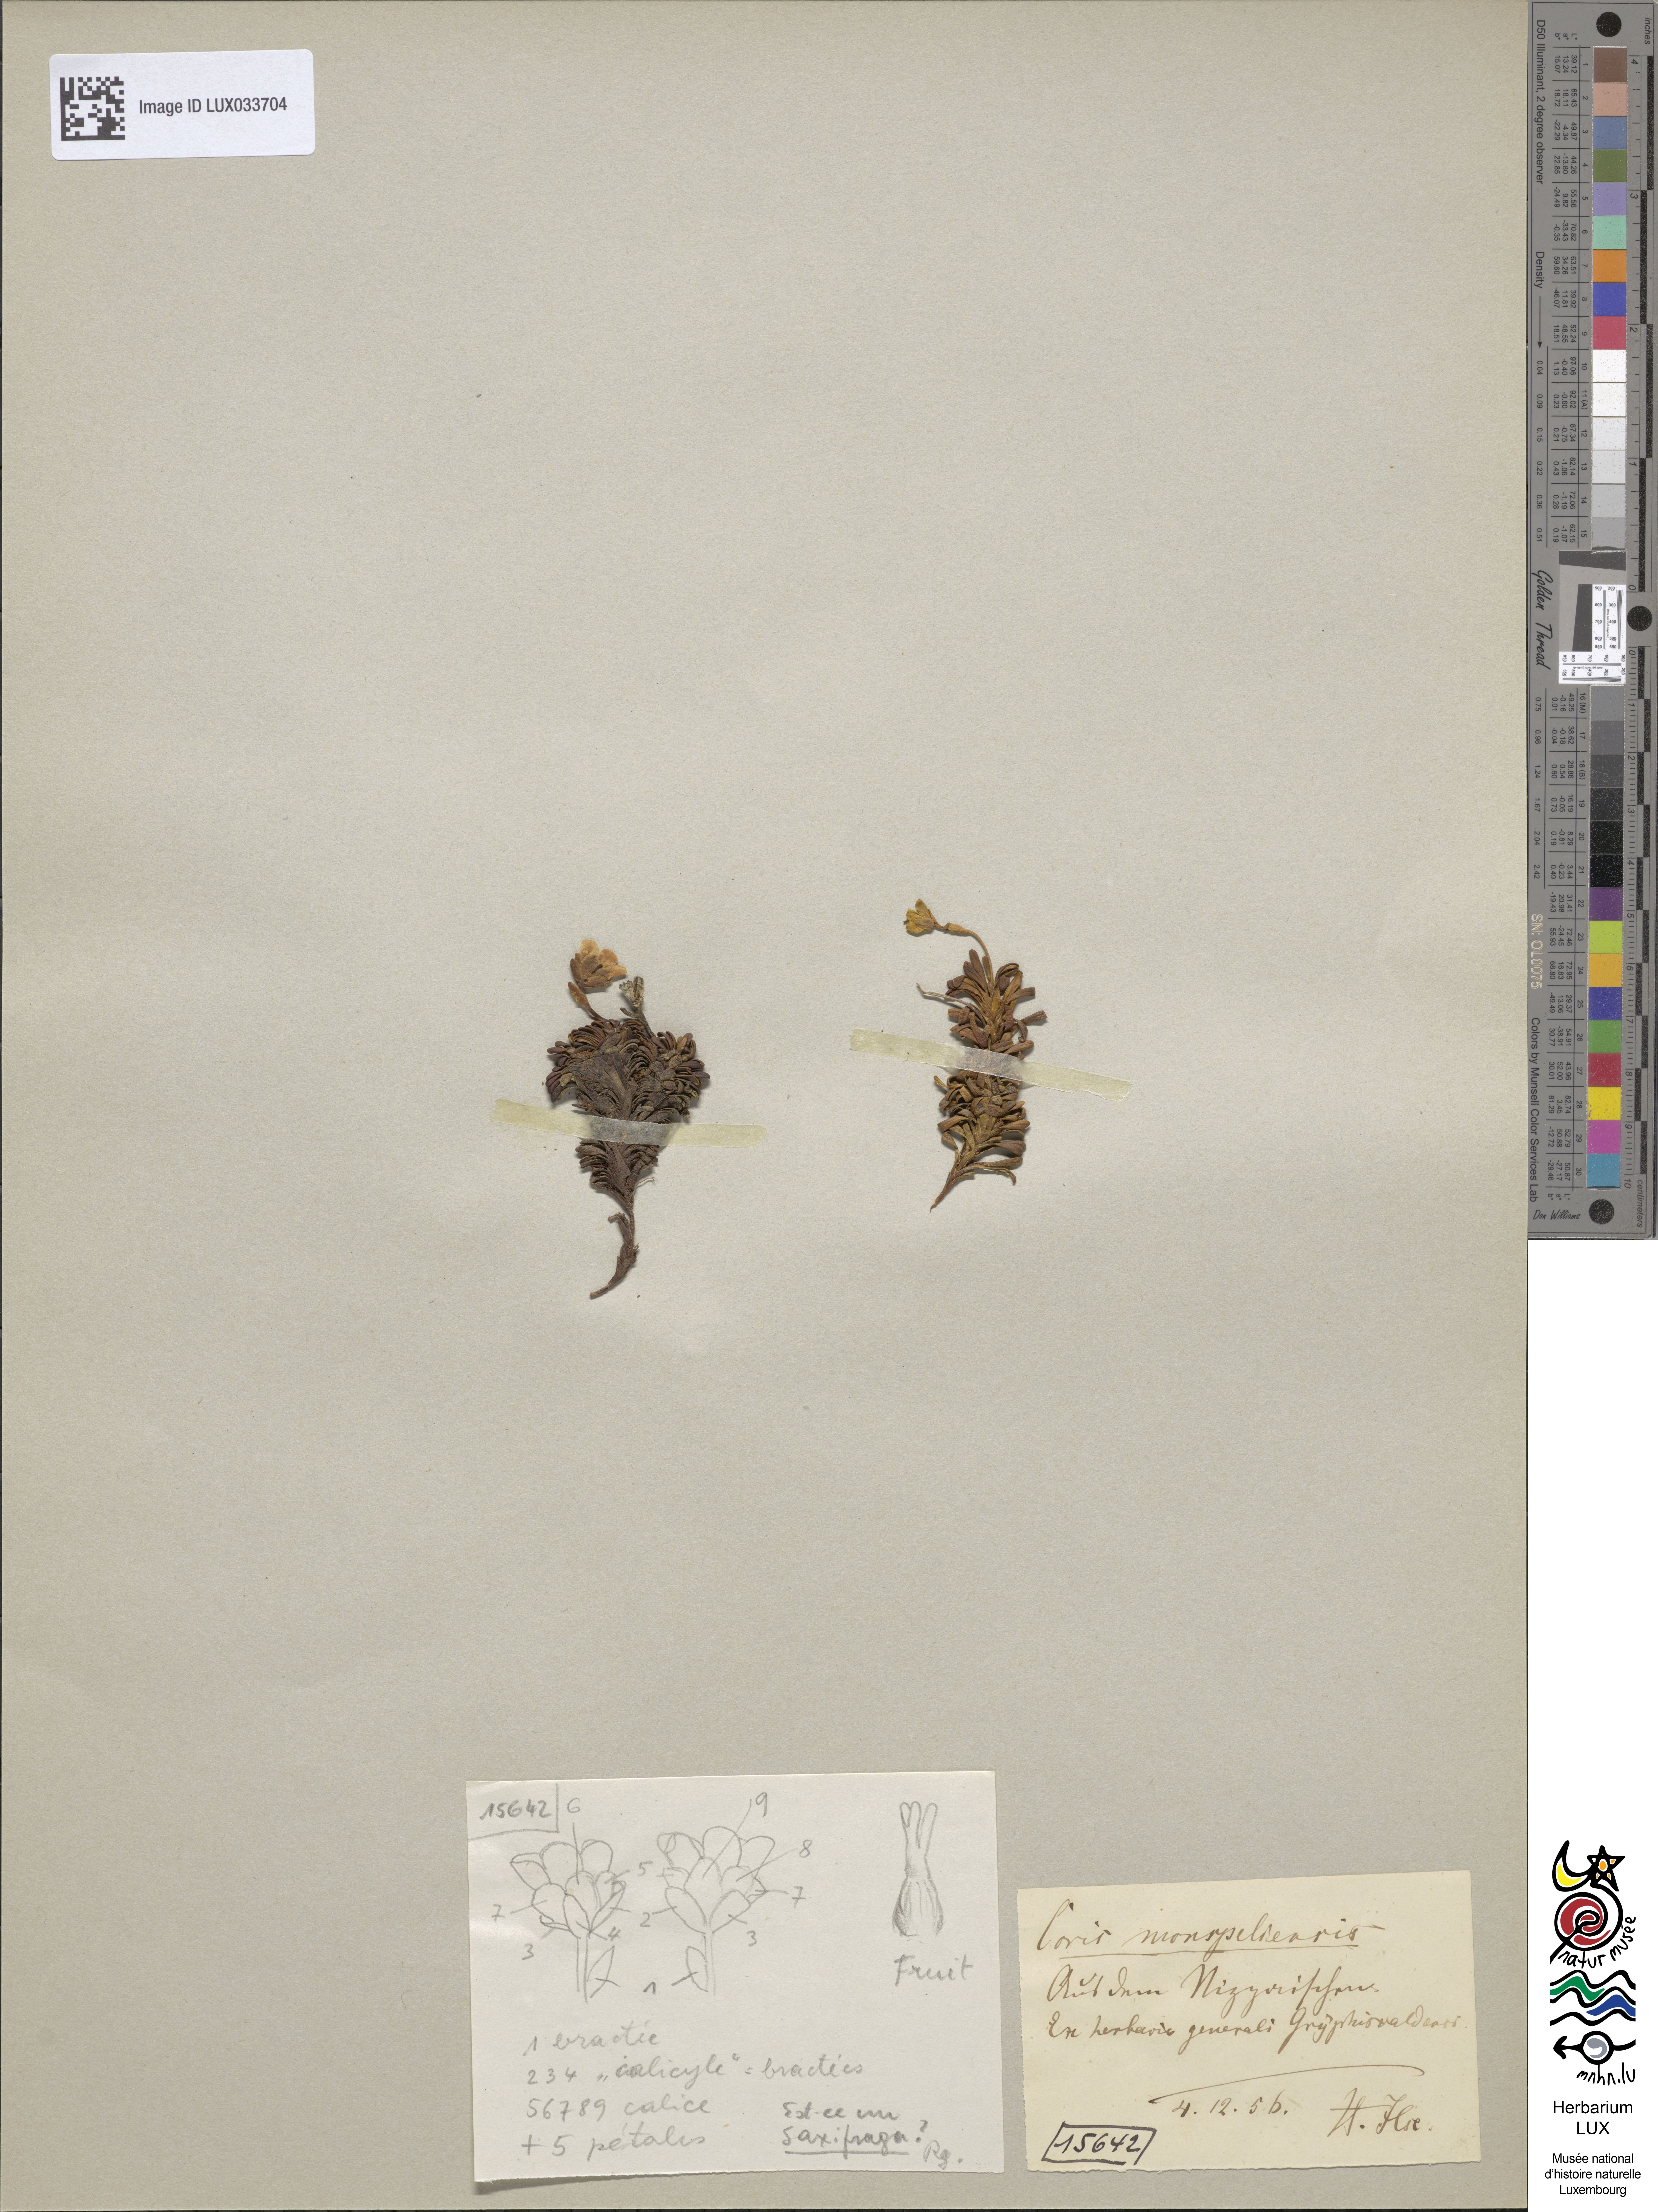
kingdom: Plantae
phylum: Tracheophyta
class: Magnoliopsida
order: Ericales
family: Primulaceae
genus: Coris
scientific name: Coris monspeliensis
